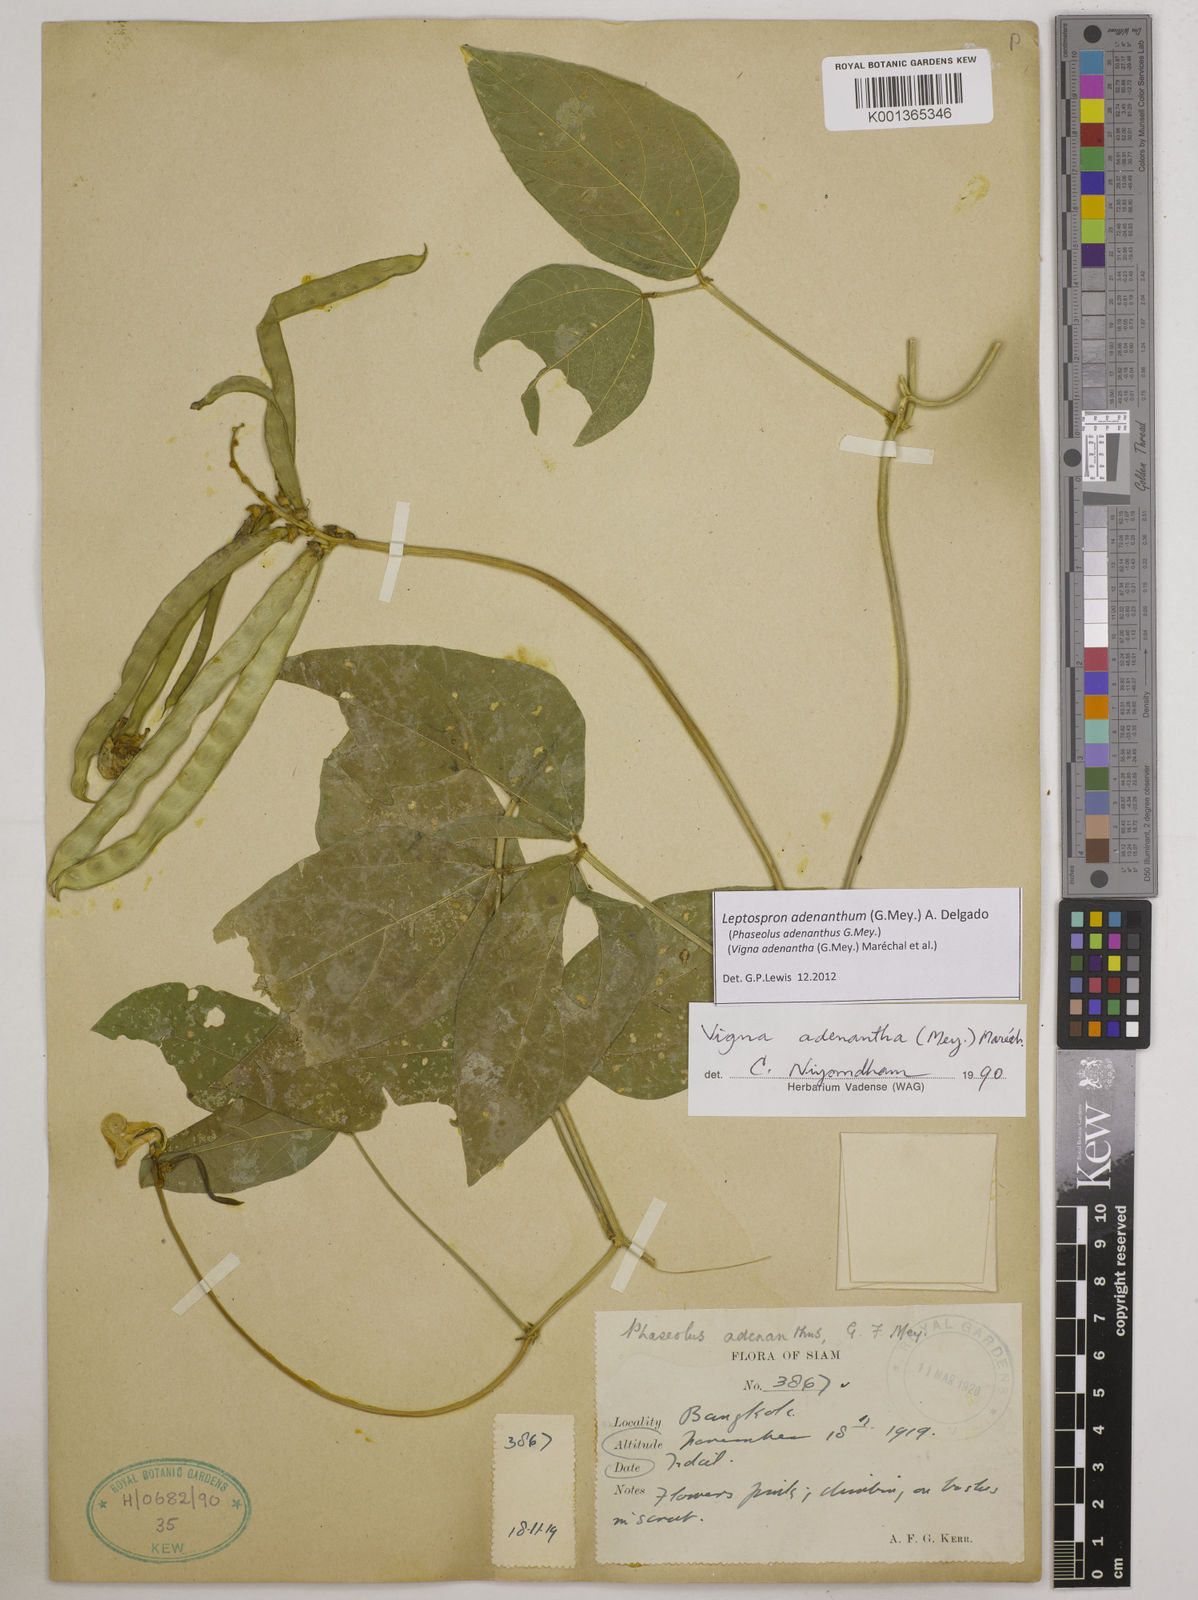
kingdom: Plantae
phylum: Tracheophyta
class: Magnoliopsida
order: Fabales
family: Fabaceae
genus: Leptospron
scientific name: Leptospron adenanthum
